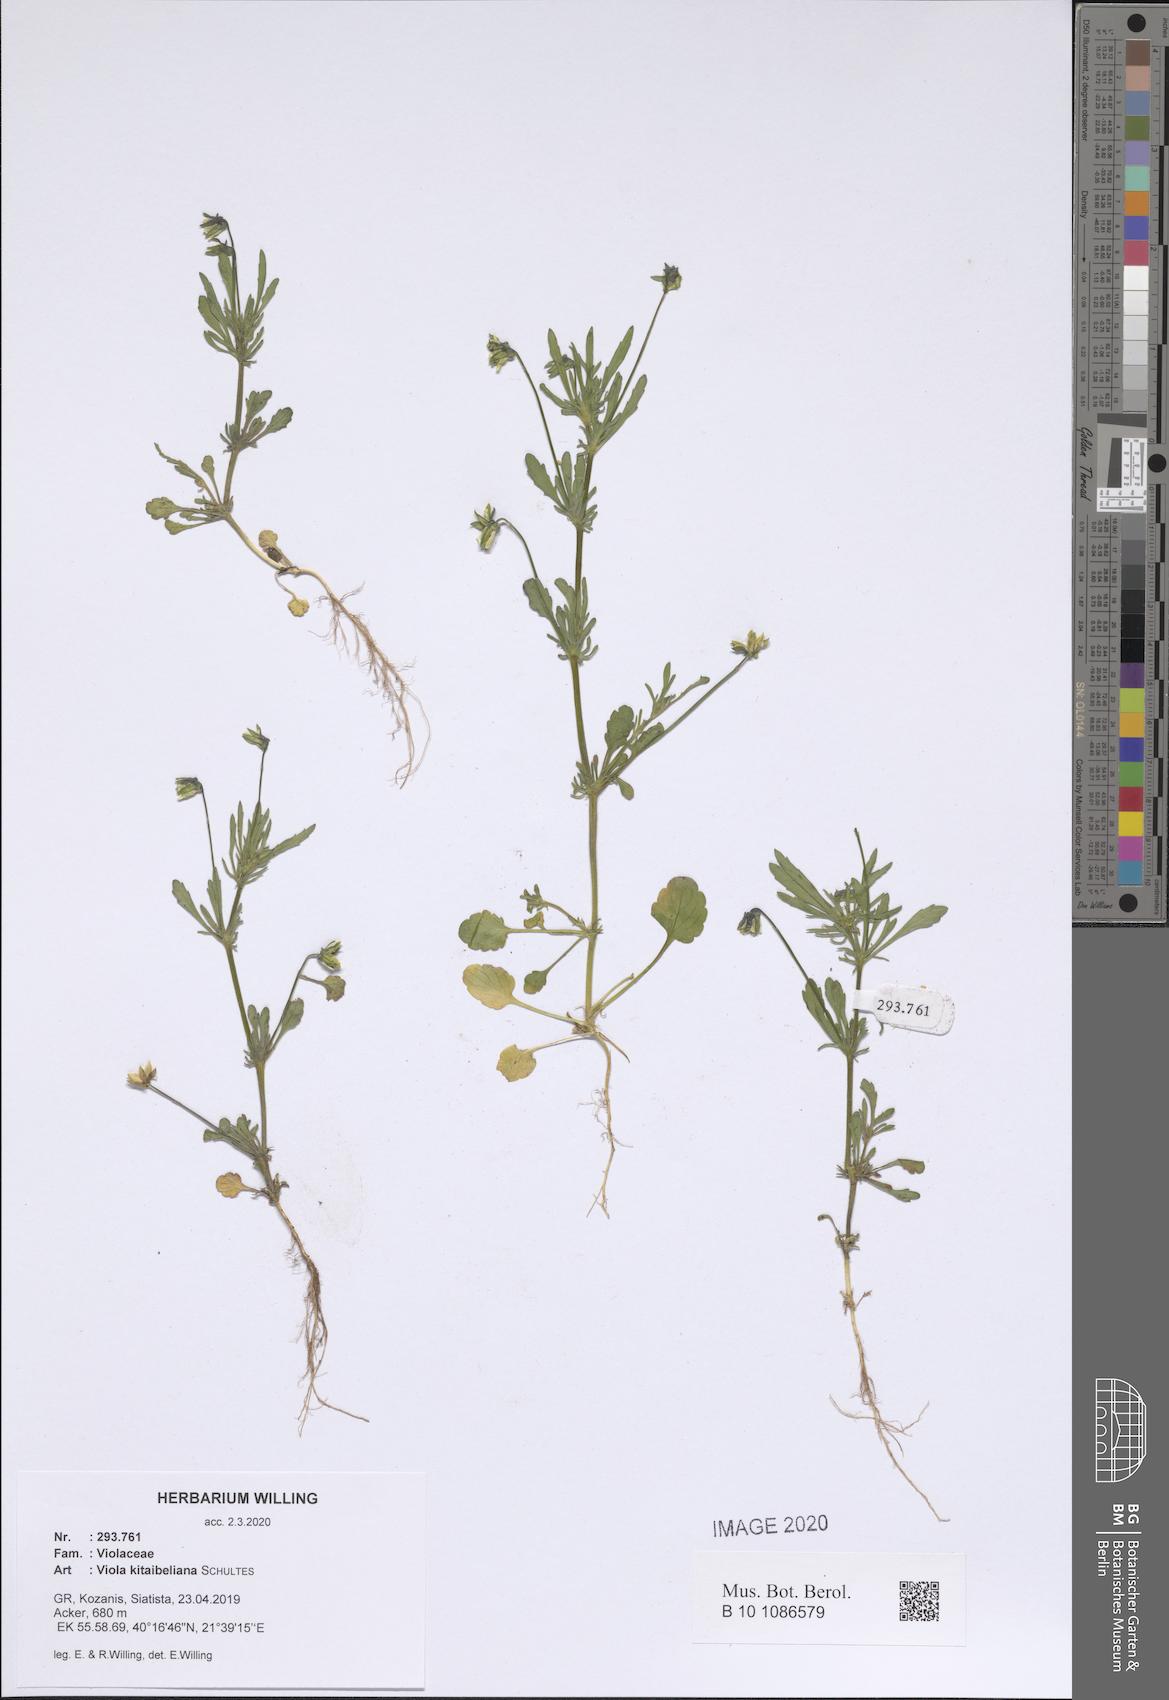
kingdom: Plantae
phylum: Tracheophyta
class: Magnoliopsida
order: Malpighiales
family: Violaceae
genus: Viola
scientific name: Viola kitaibeliana
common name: Dwarf pansy
